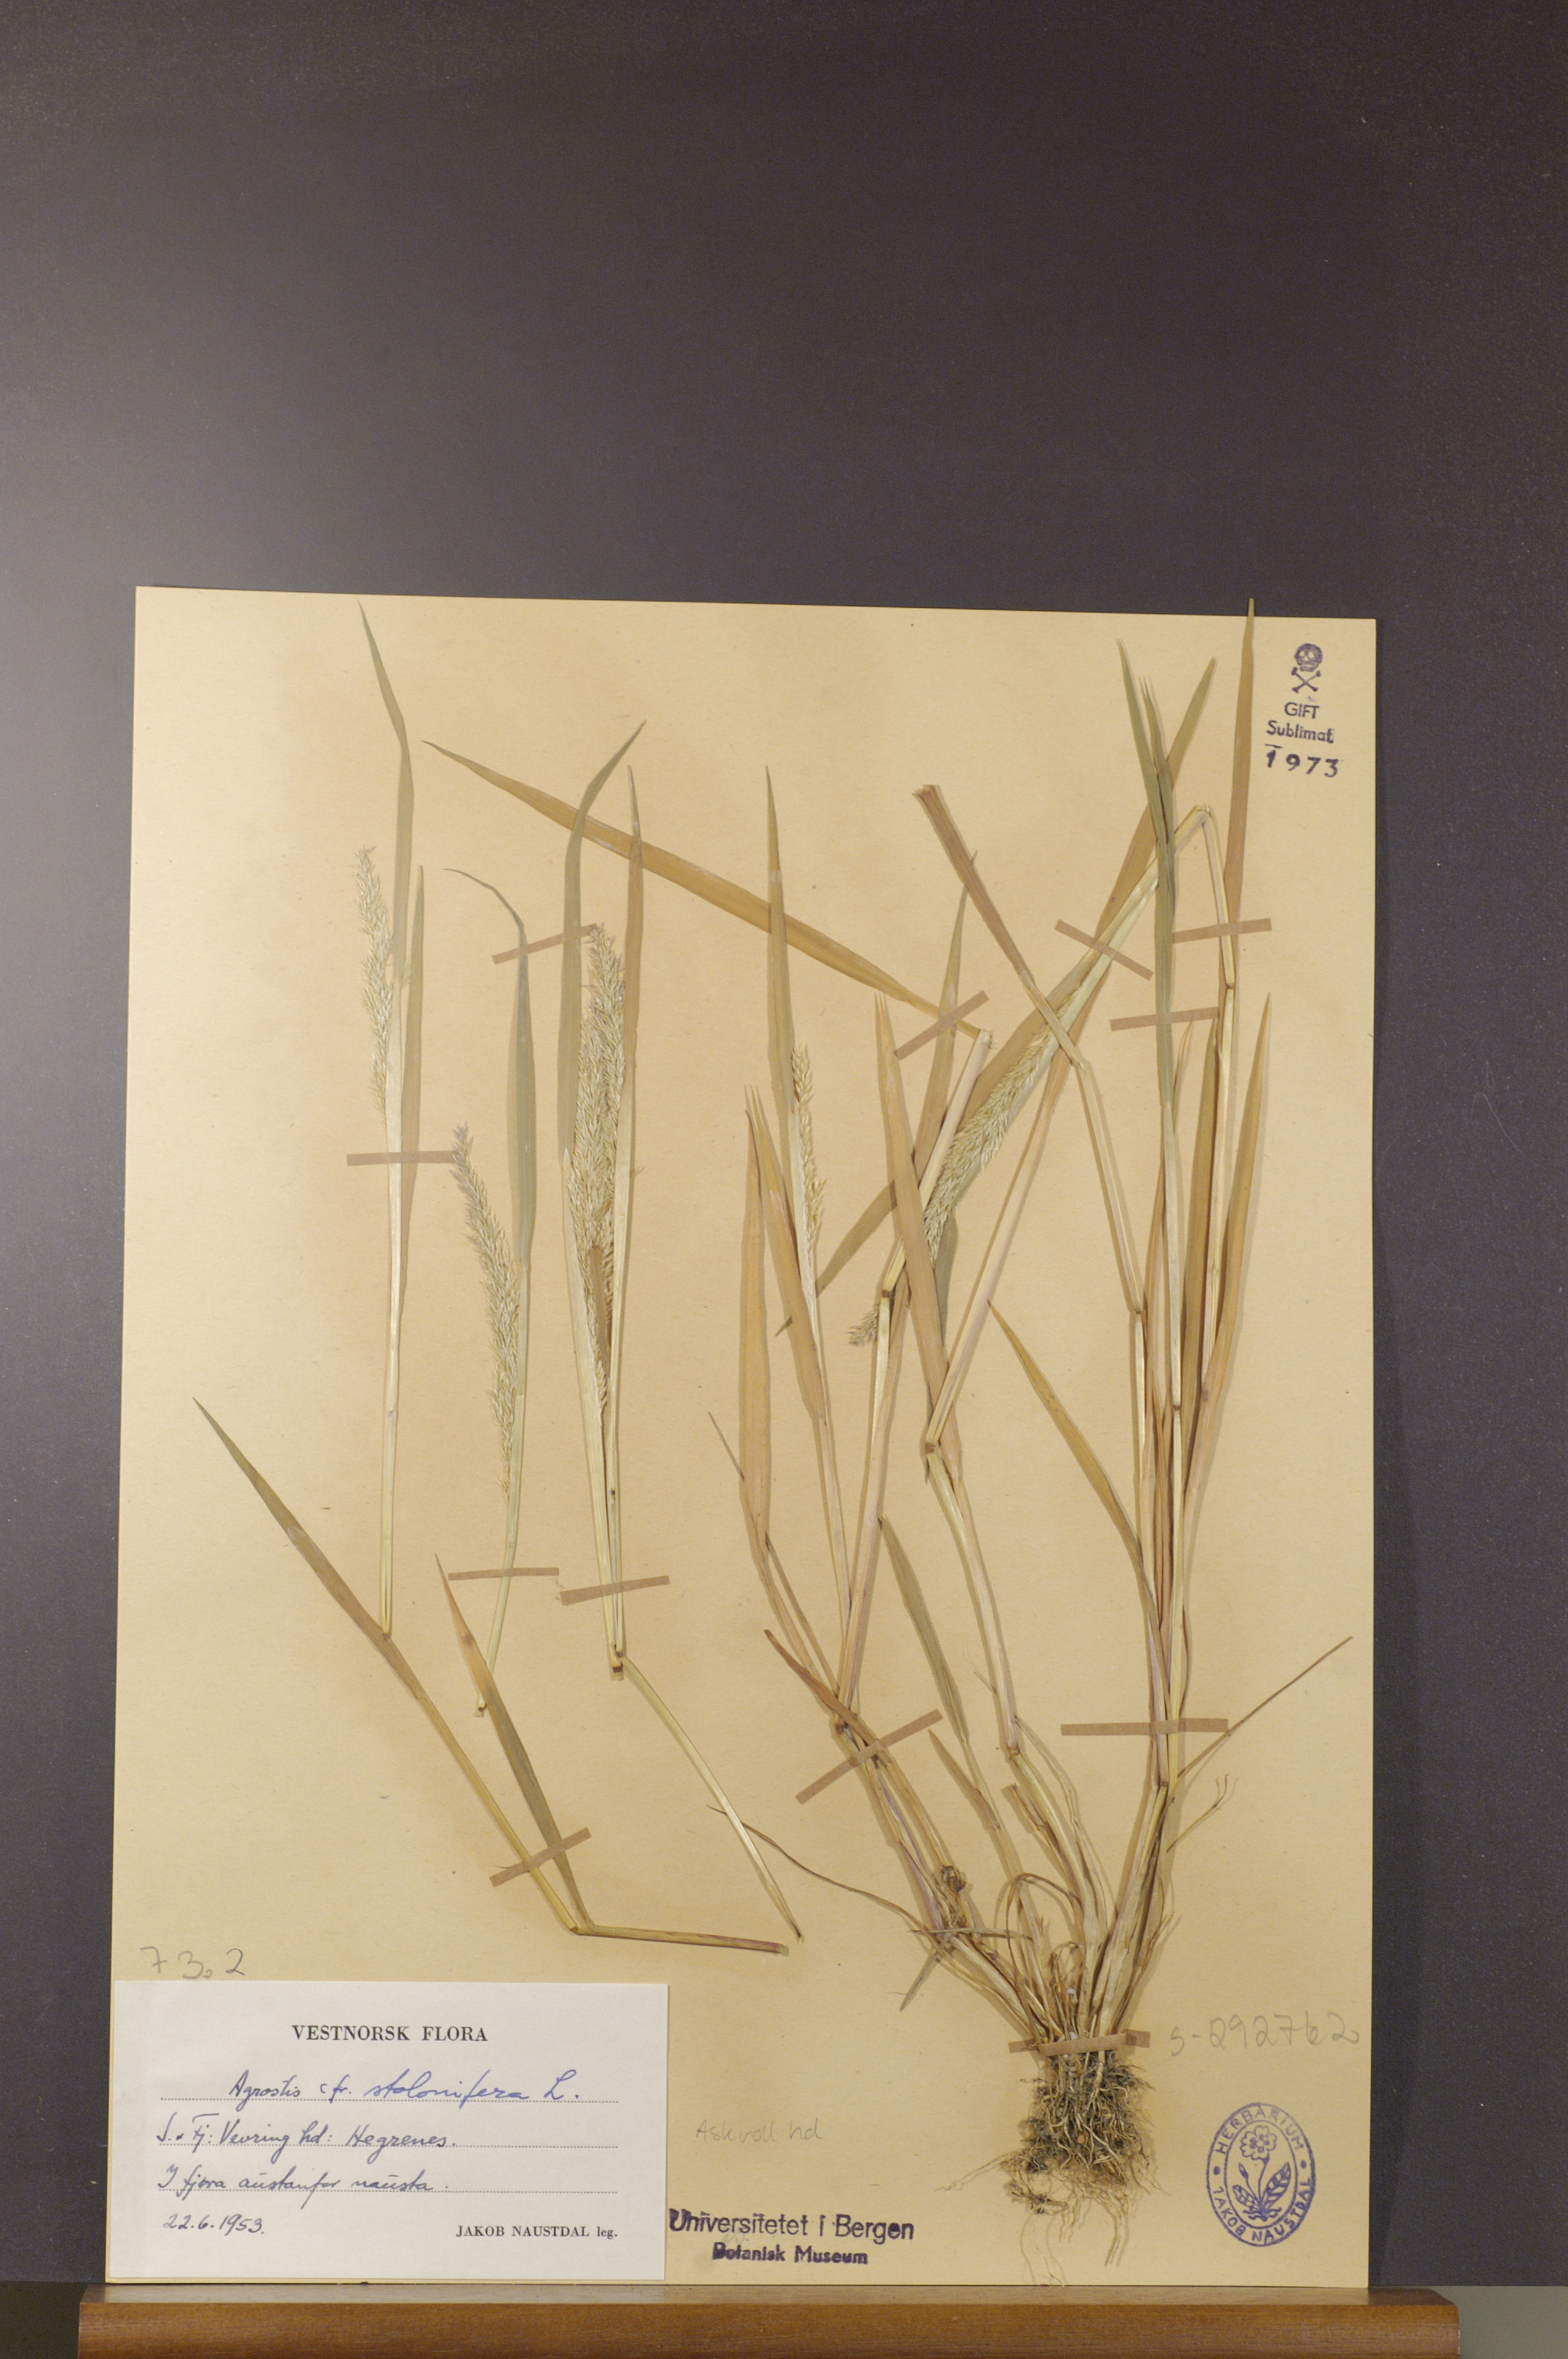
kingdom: Plantae
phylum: Tracheophyta
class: Liliopsida
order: Poales
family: Poaceae
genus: Agrostis
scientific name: Agrostis stolonifera
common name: Creeping bentgrass
